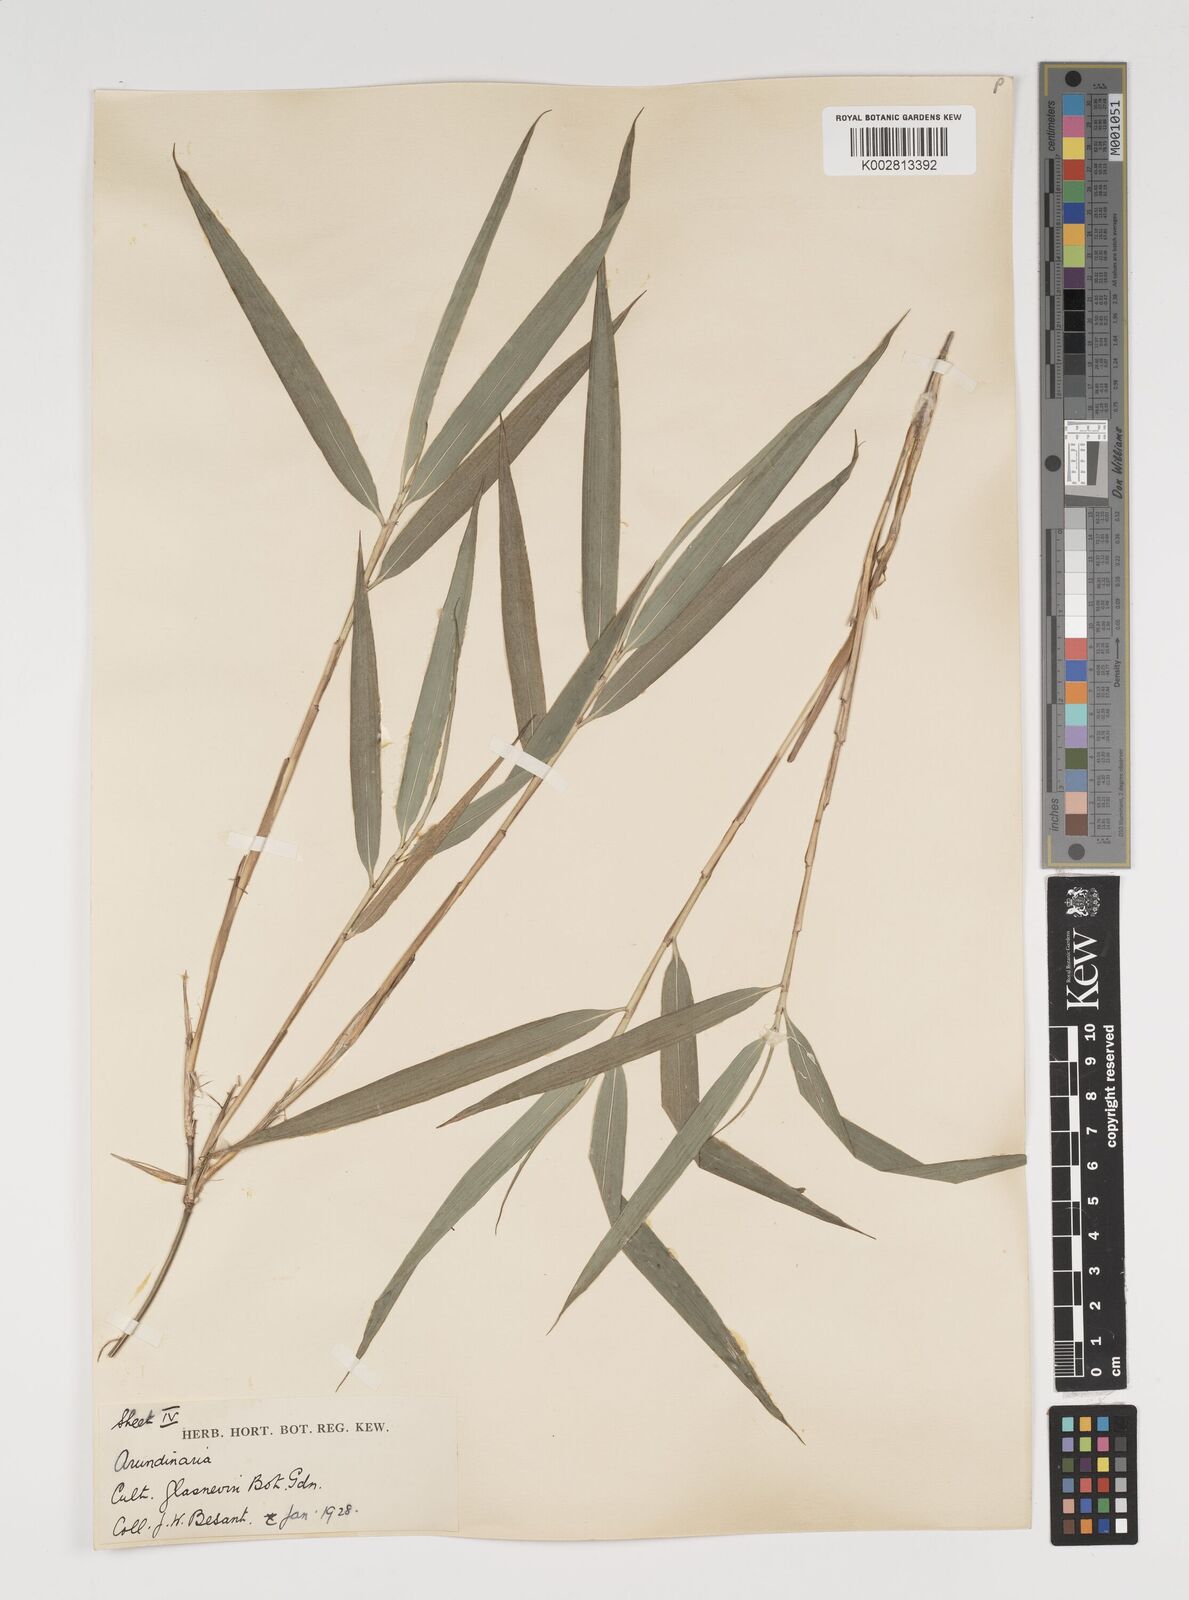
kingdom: Plantae
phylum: Tracheophyta
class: Liliopsida
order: Poales
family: Poaceae
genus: Thamnocalamus
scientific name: Thamnocalamus spathiflorus
